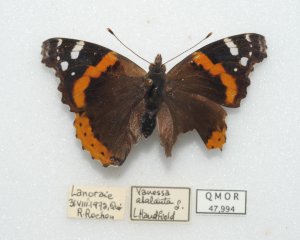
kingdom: Animalia
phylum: Arthropoda
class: Insecta
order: Lepidoptera
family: Nymphalidae
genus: Vanessa
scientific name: Vanessa atalanta
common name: Red Admiral
